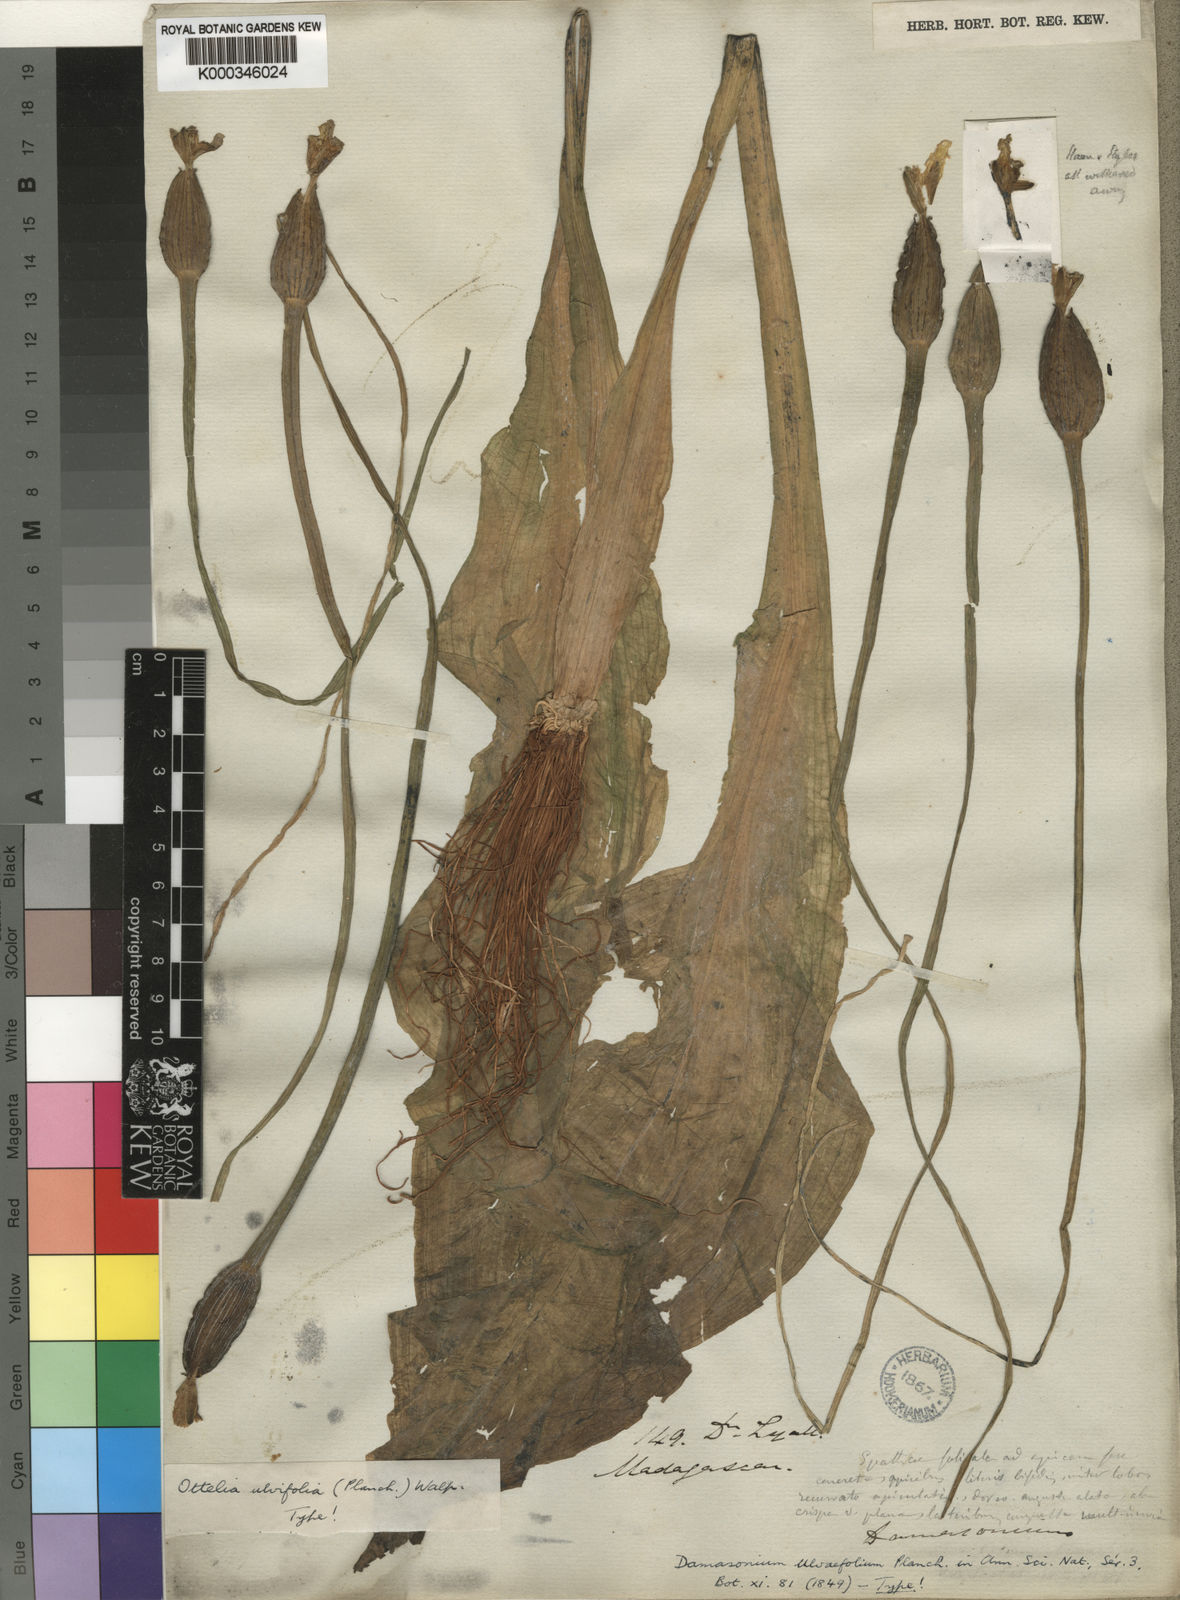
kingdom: Plantae
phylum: Tracheophyta
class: Liliopsida
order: Alismatales
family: Hydrocharitaceae
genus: Ottelia
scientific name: Ottelia ulvifolia
